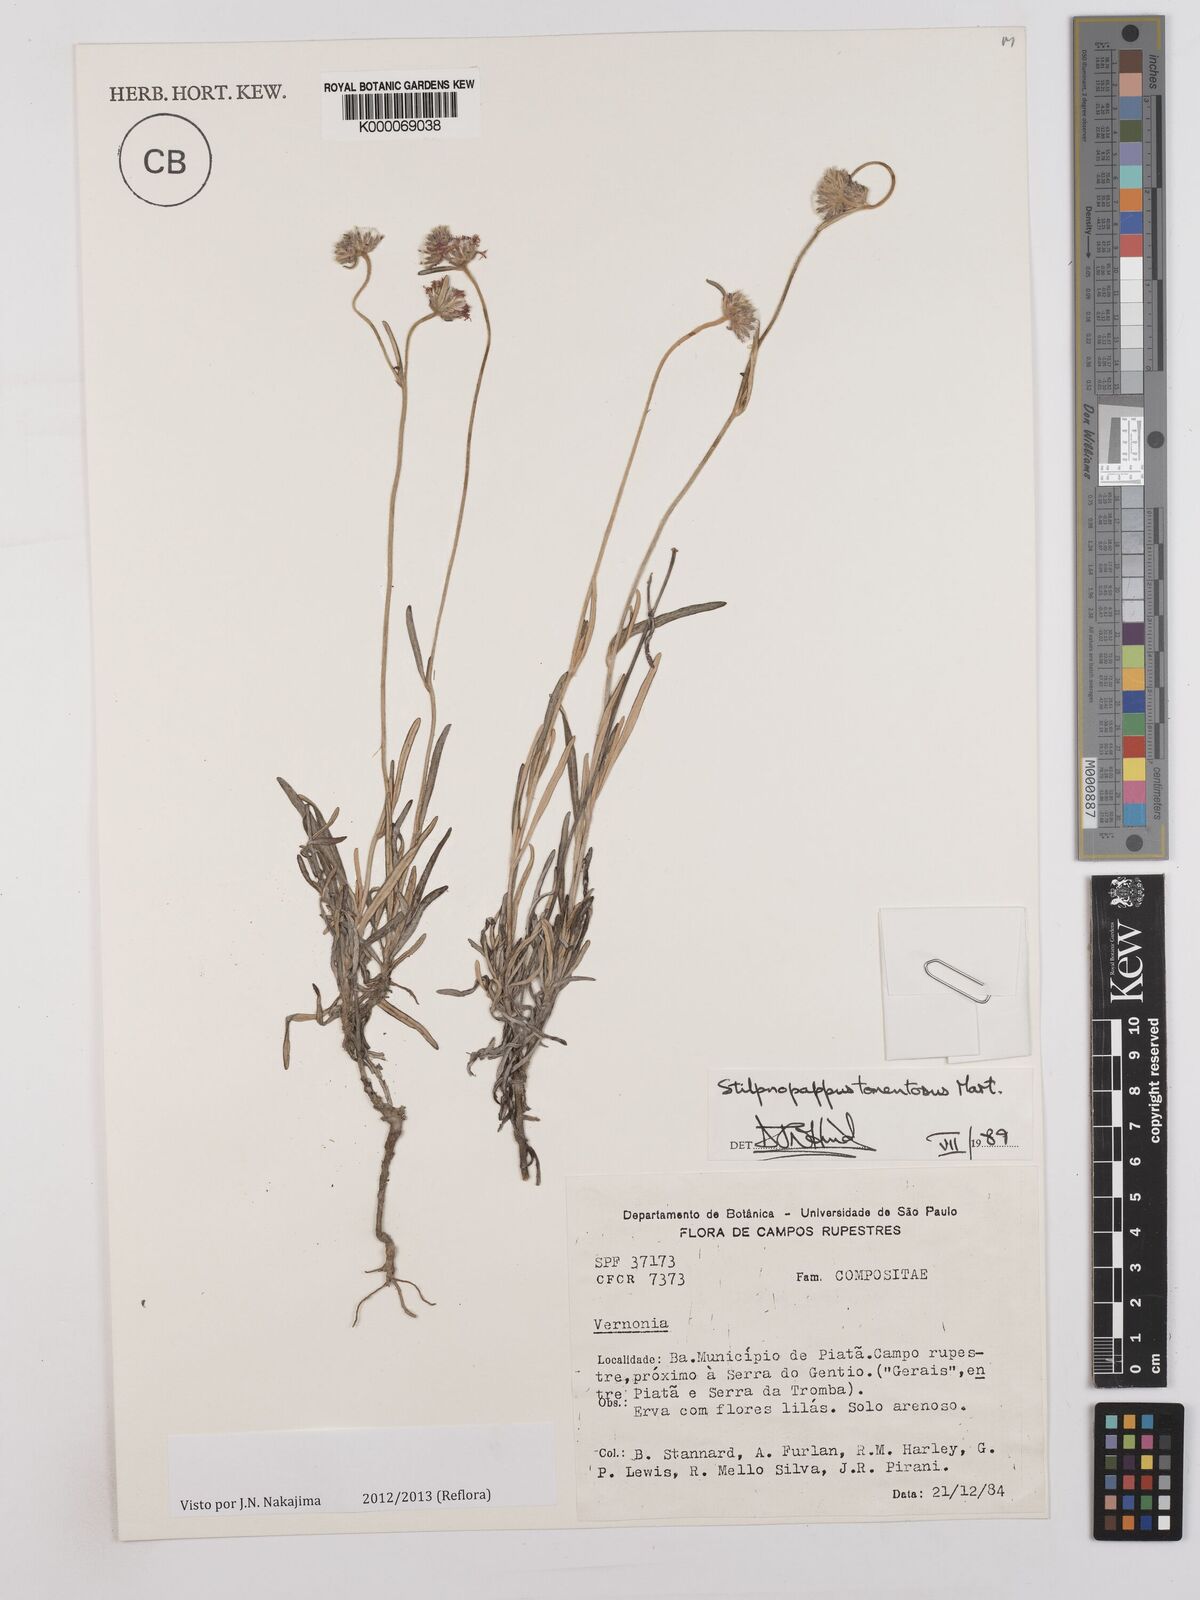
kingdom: Plantae
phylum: Tracheophyta
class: Magnoliopsida
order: Asterales
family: Asteraceae
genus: Stilpnopappus
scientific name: Stilpnopappus tomentosus
